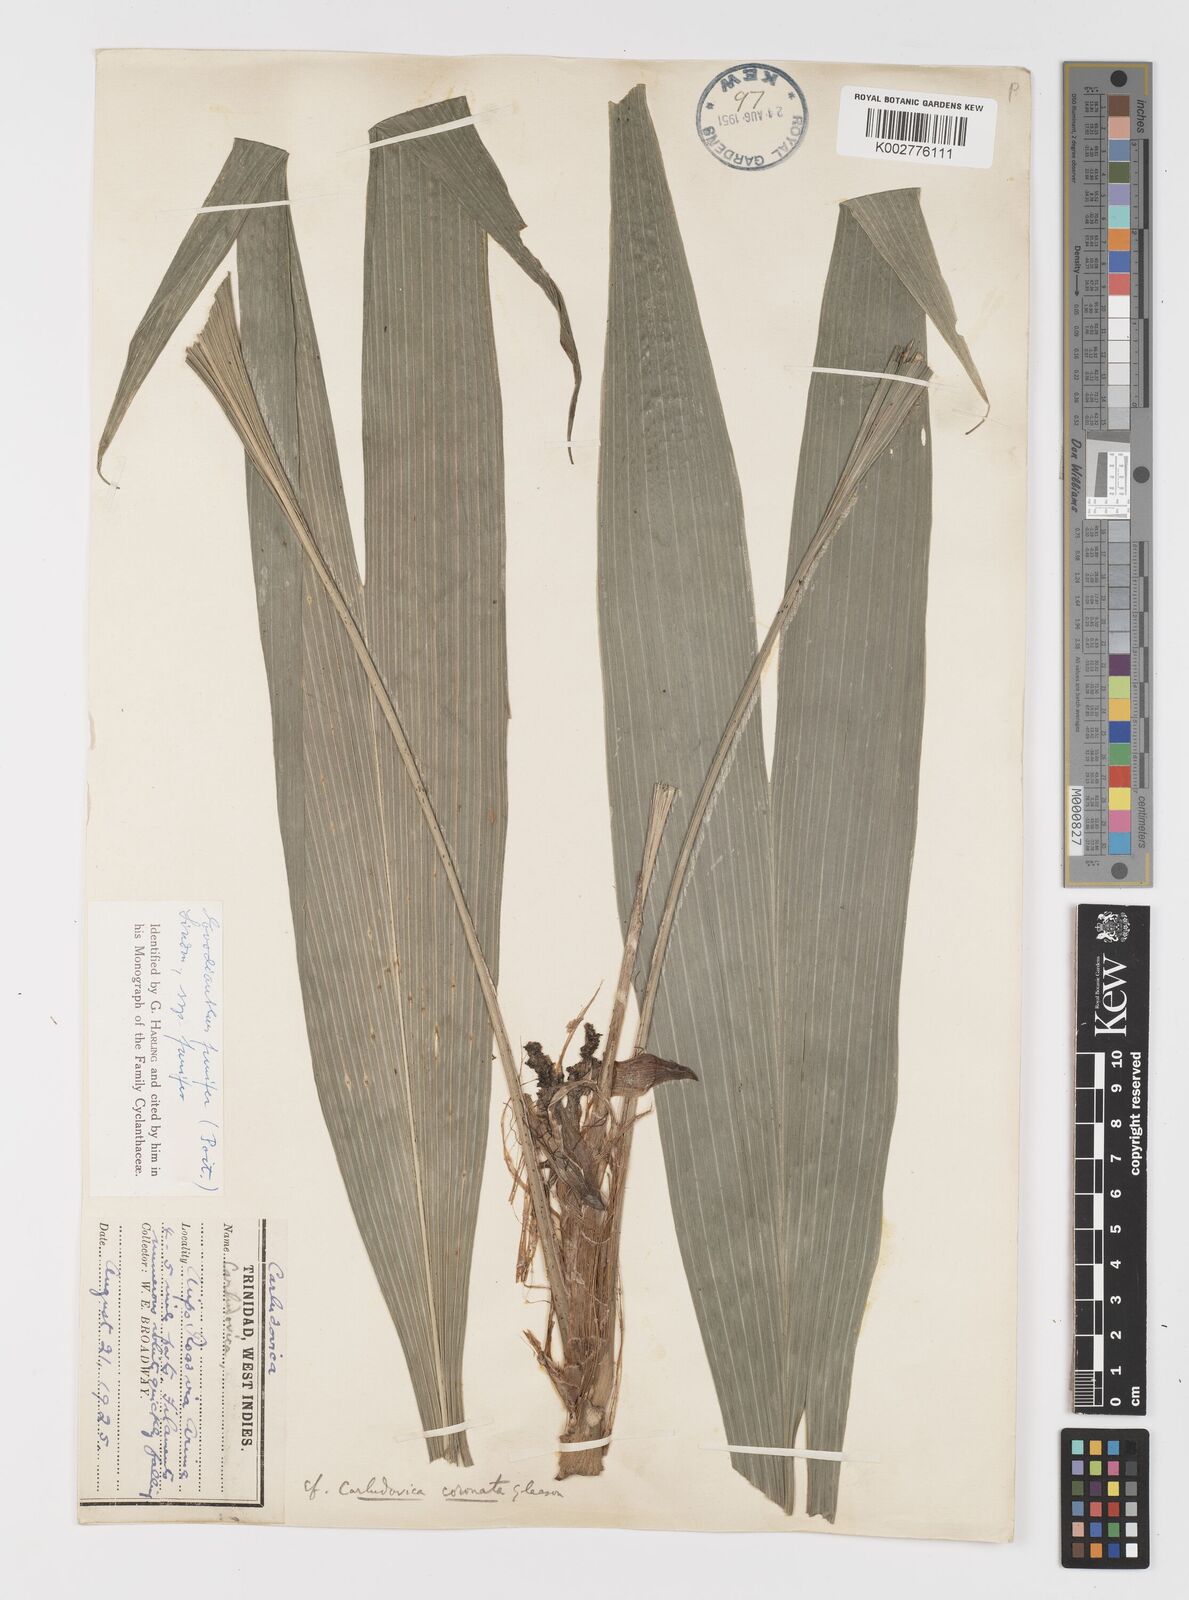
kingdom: Plantae
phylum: Tracheophyta
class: Liliopsida
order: Pandanales
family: Cyclanthaceae
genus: Evodianthus
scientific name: Evodianthus funifer
